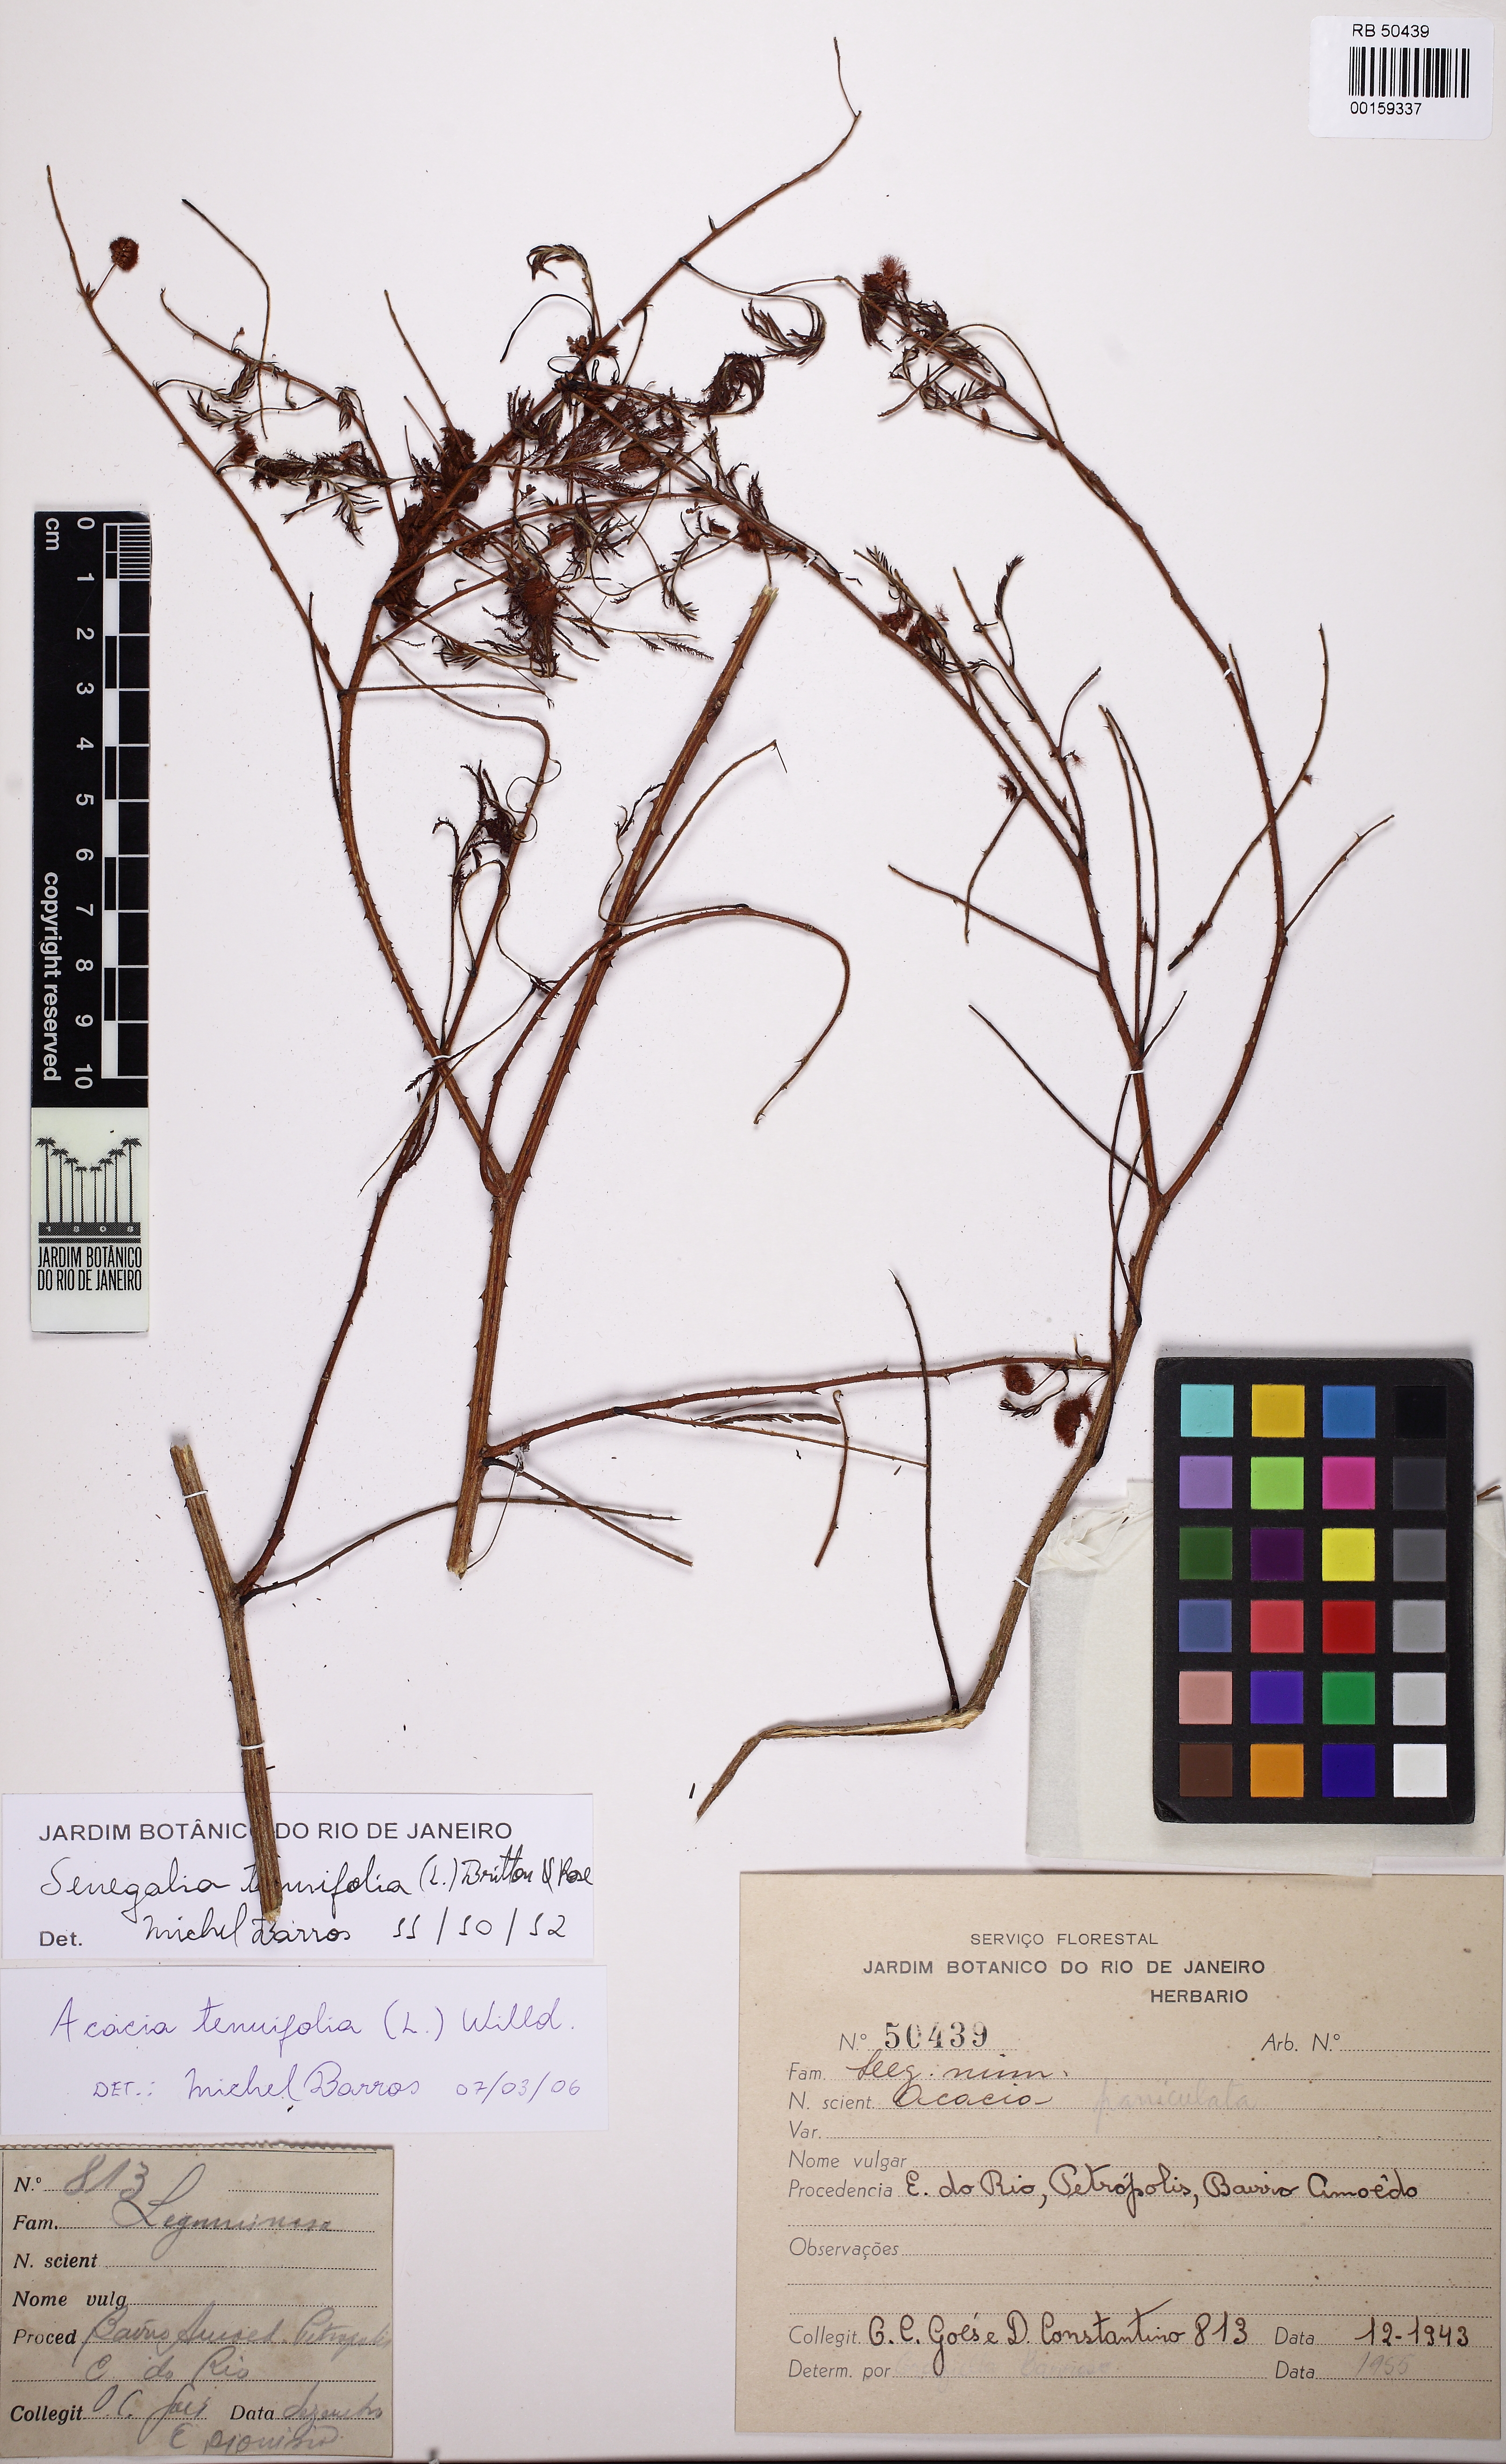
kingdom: Plantae
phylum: Tracheophyta
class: Magnoliopsida
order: Fabales
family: Fabaceae
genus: Senegalia
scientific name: Senegalia tenuifolia
